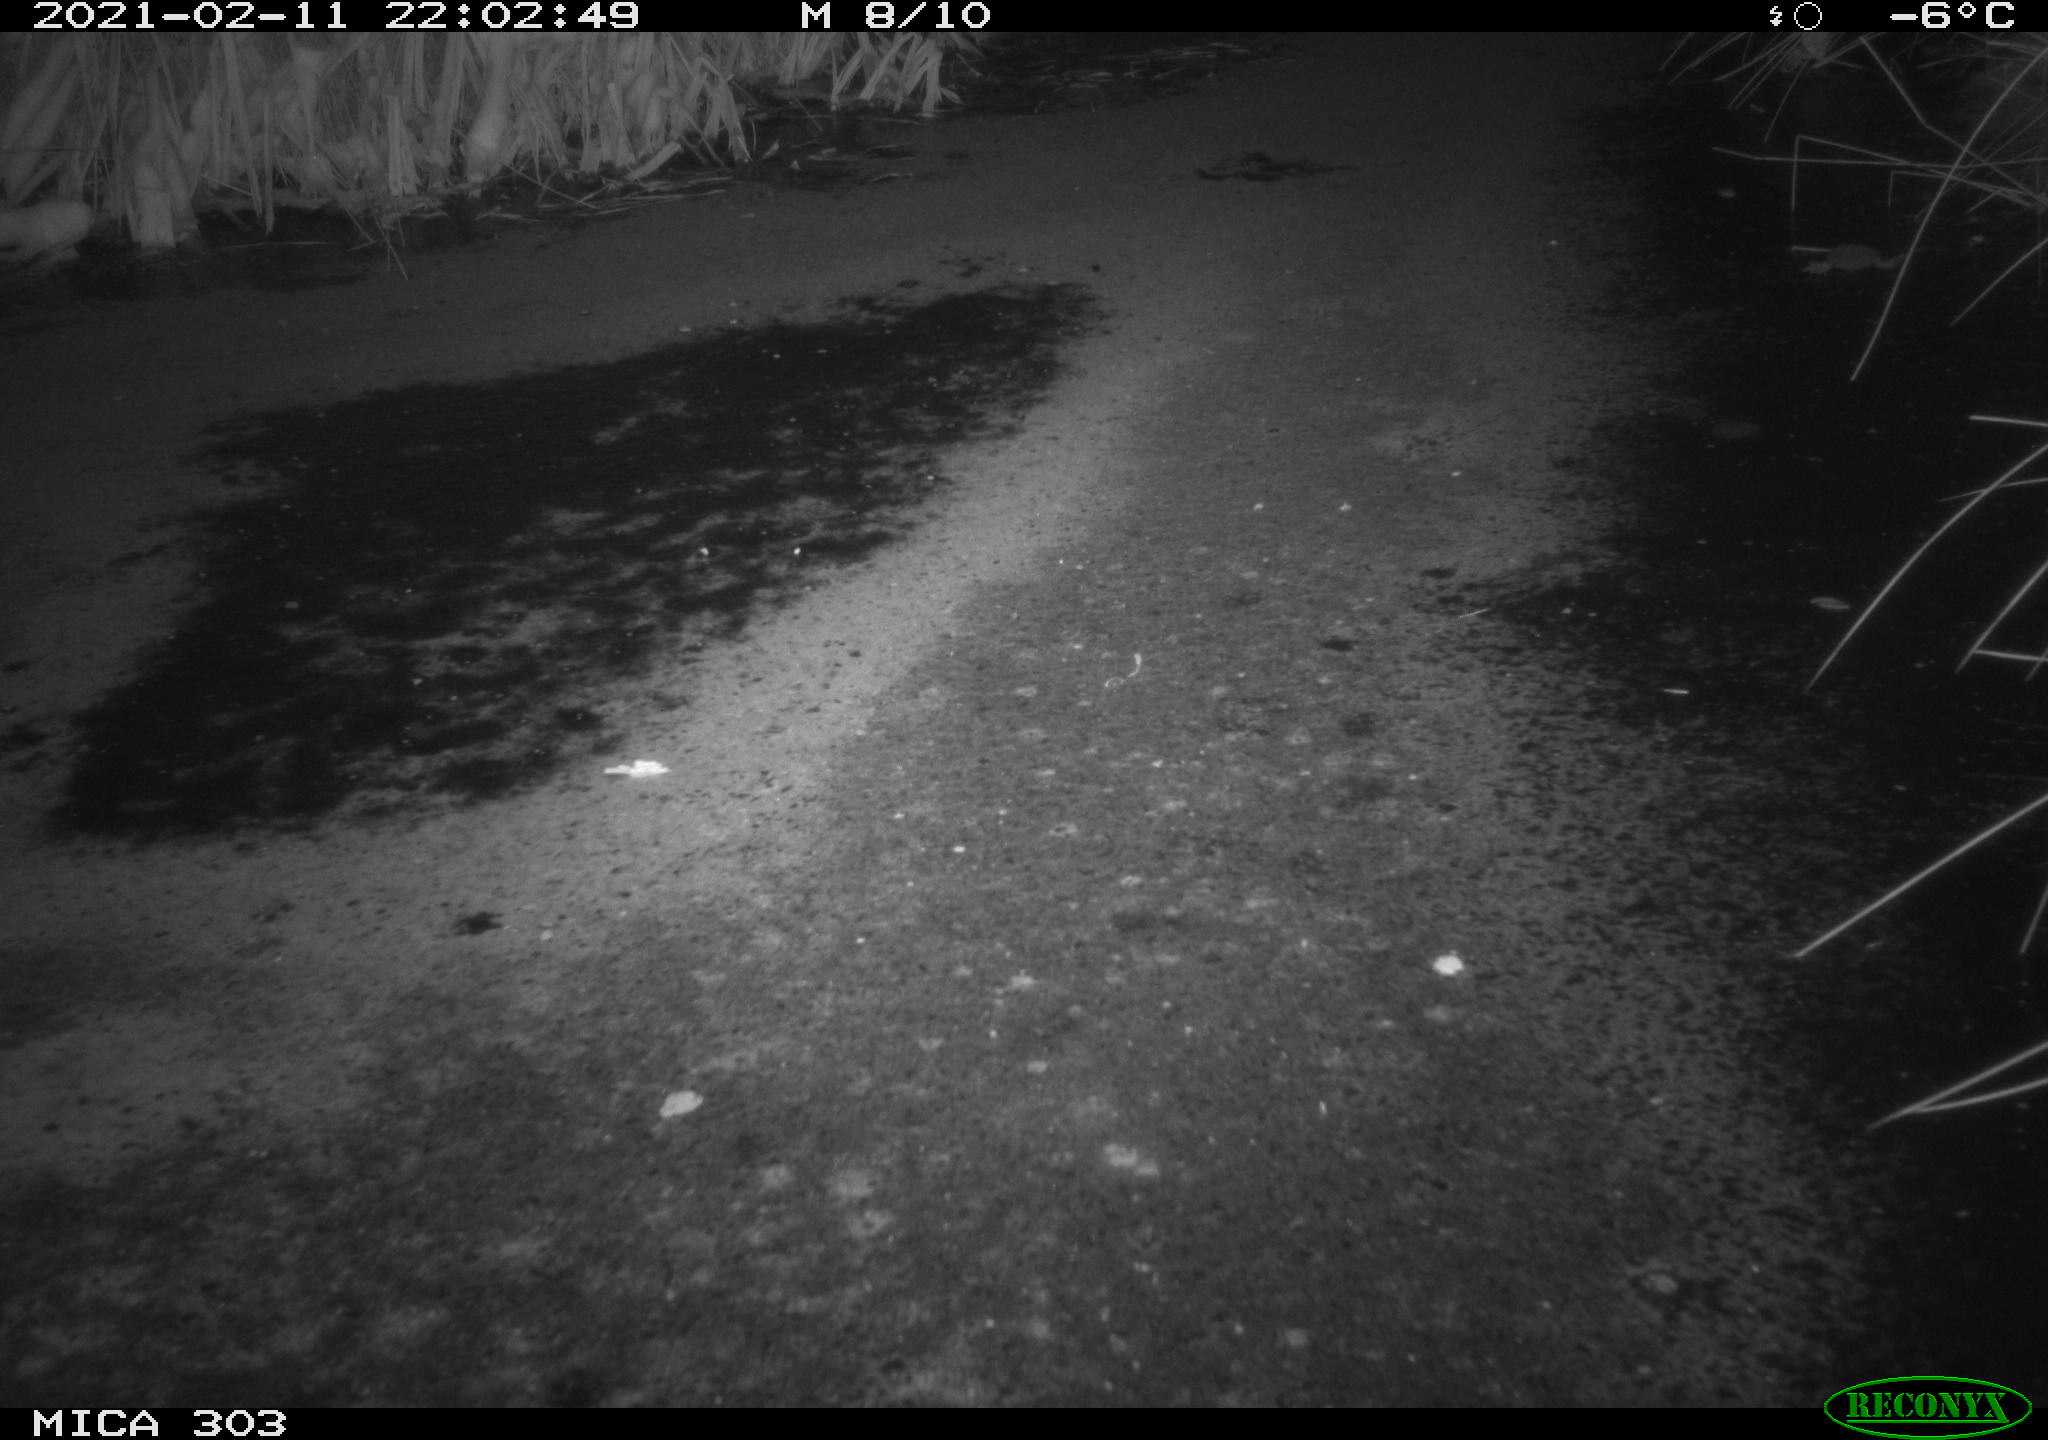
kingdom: Animalia
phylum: Chordata
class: Mammalia
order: Carnivora
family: Canidae
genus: Vulpes
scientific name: Vulpes vulpes
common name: Red fox
